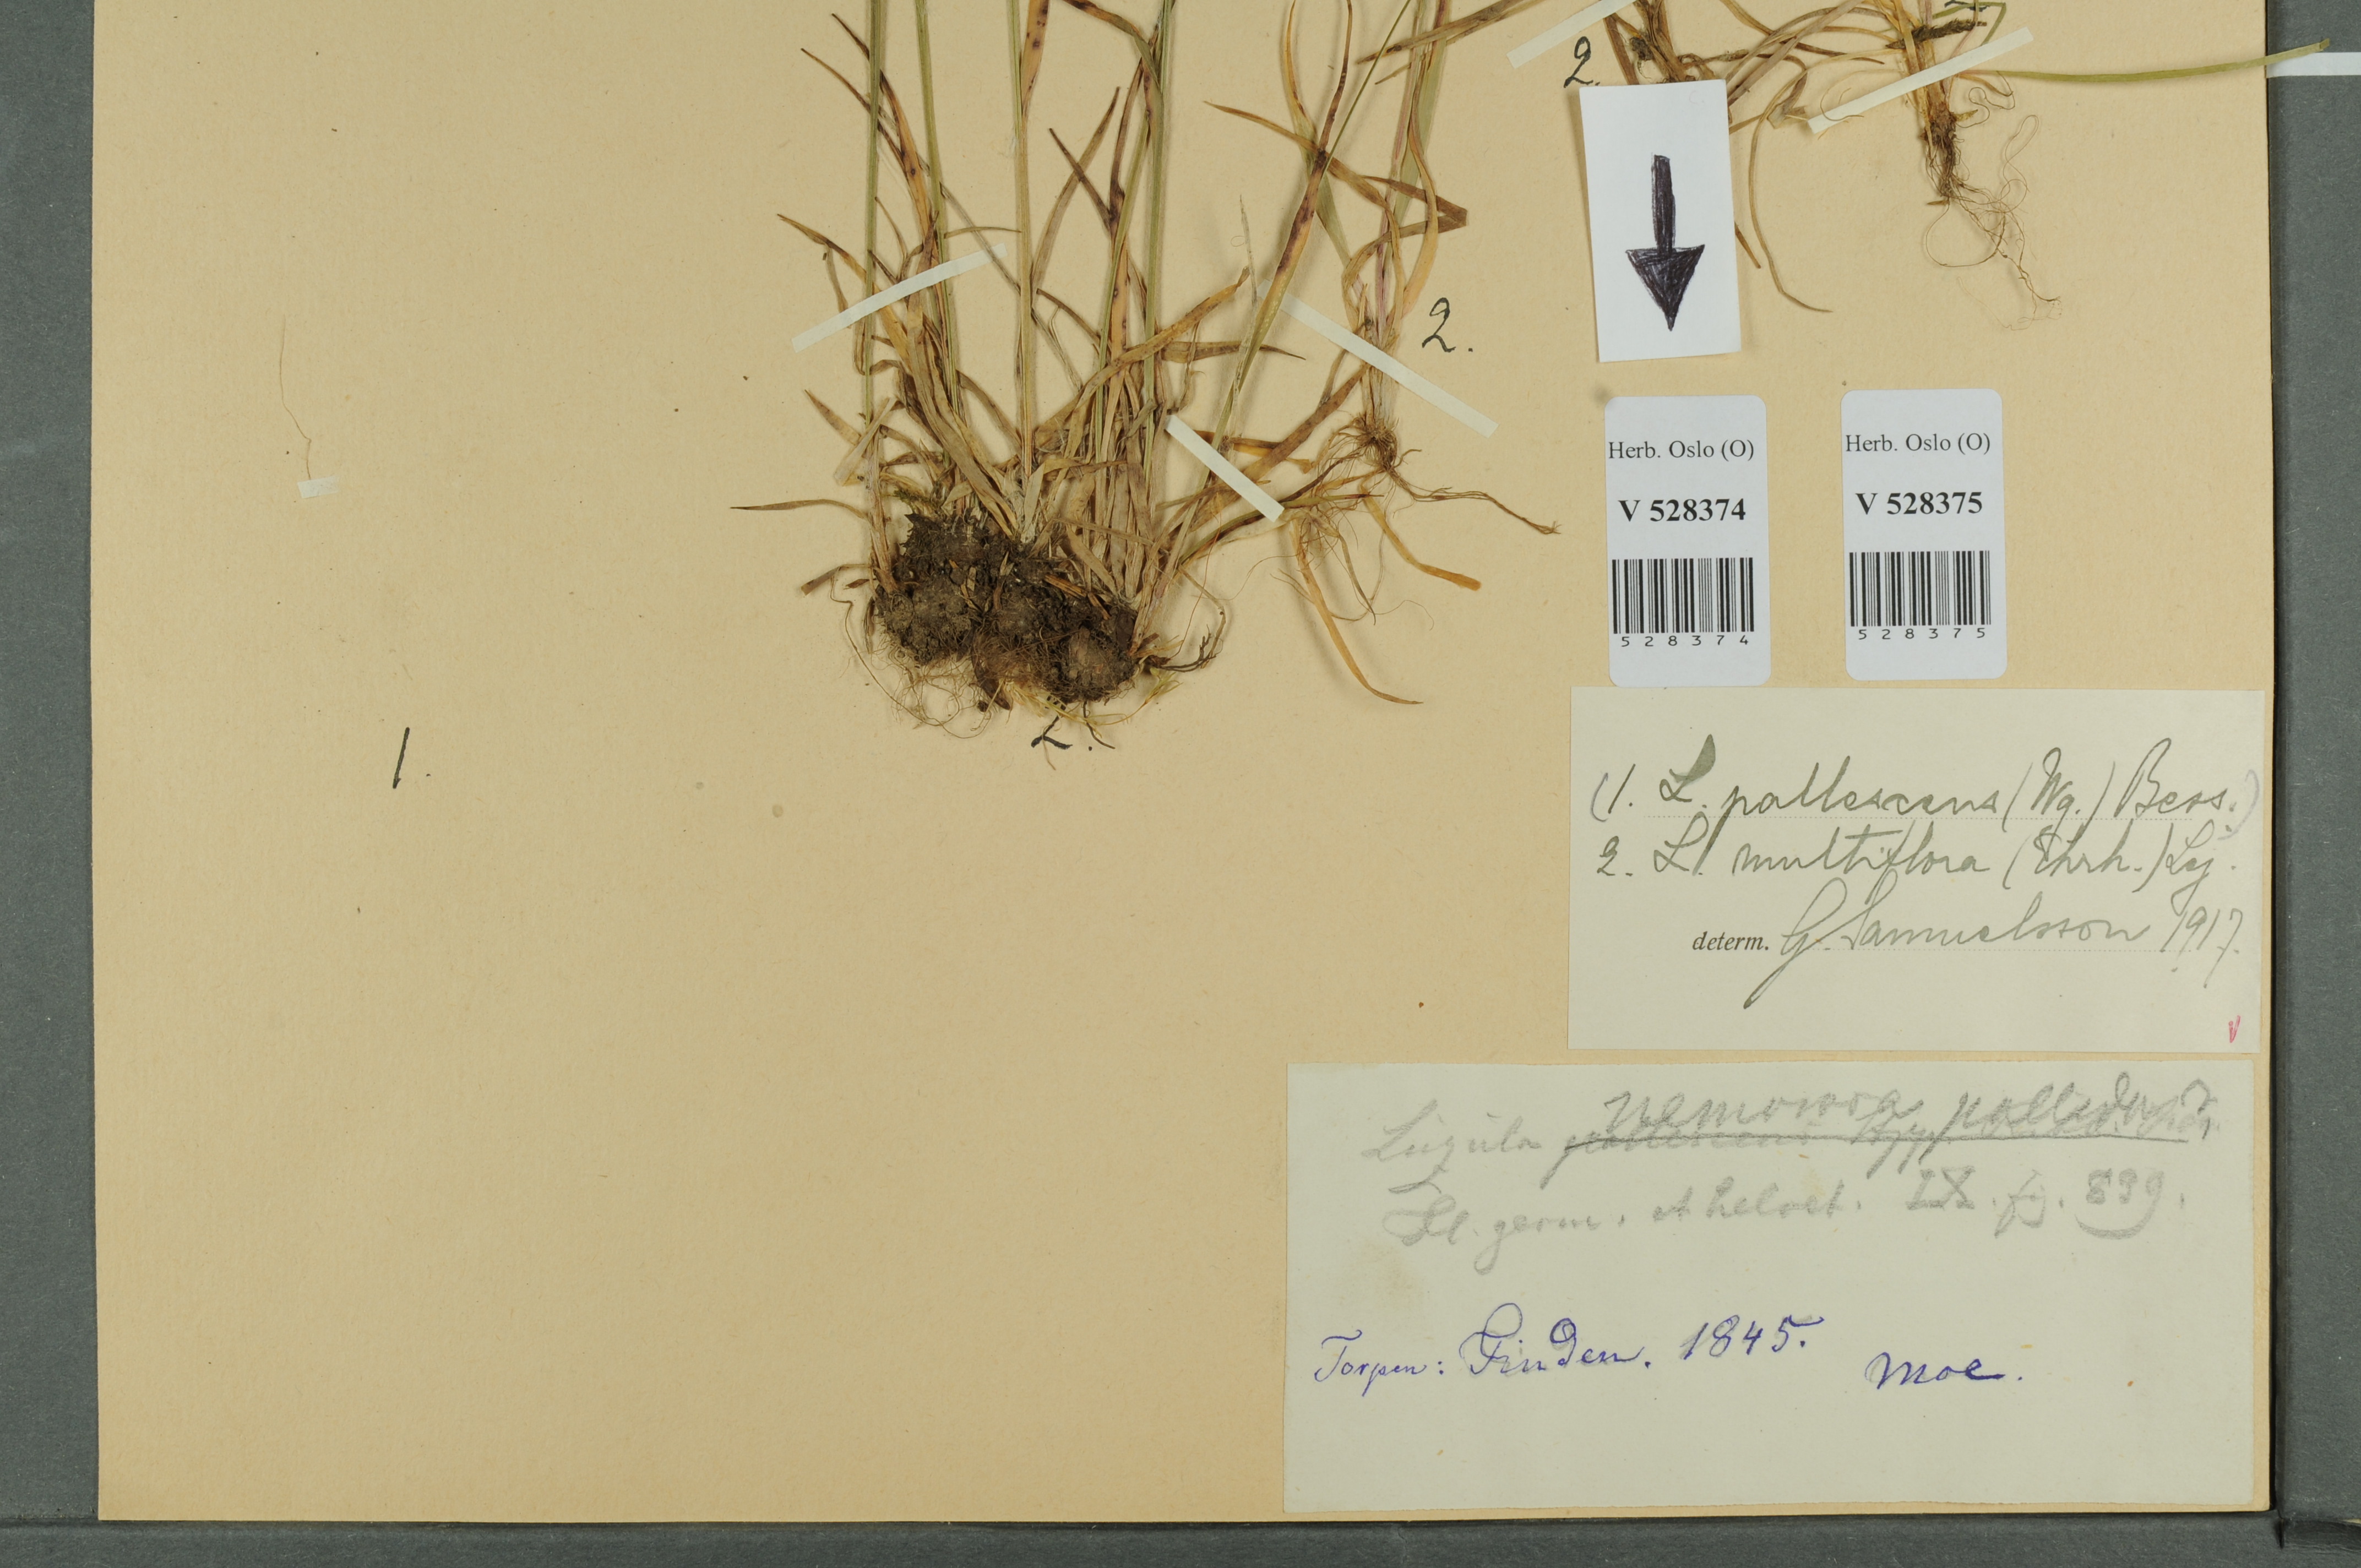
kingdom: Plantae
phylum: Tracheophyta
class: Liliopsida
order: Poales
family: Juncaceae
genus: Luzula
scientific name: Luzula multiflora
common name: Heath wood-rush
